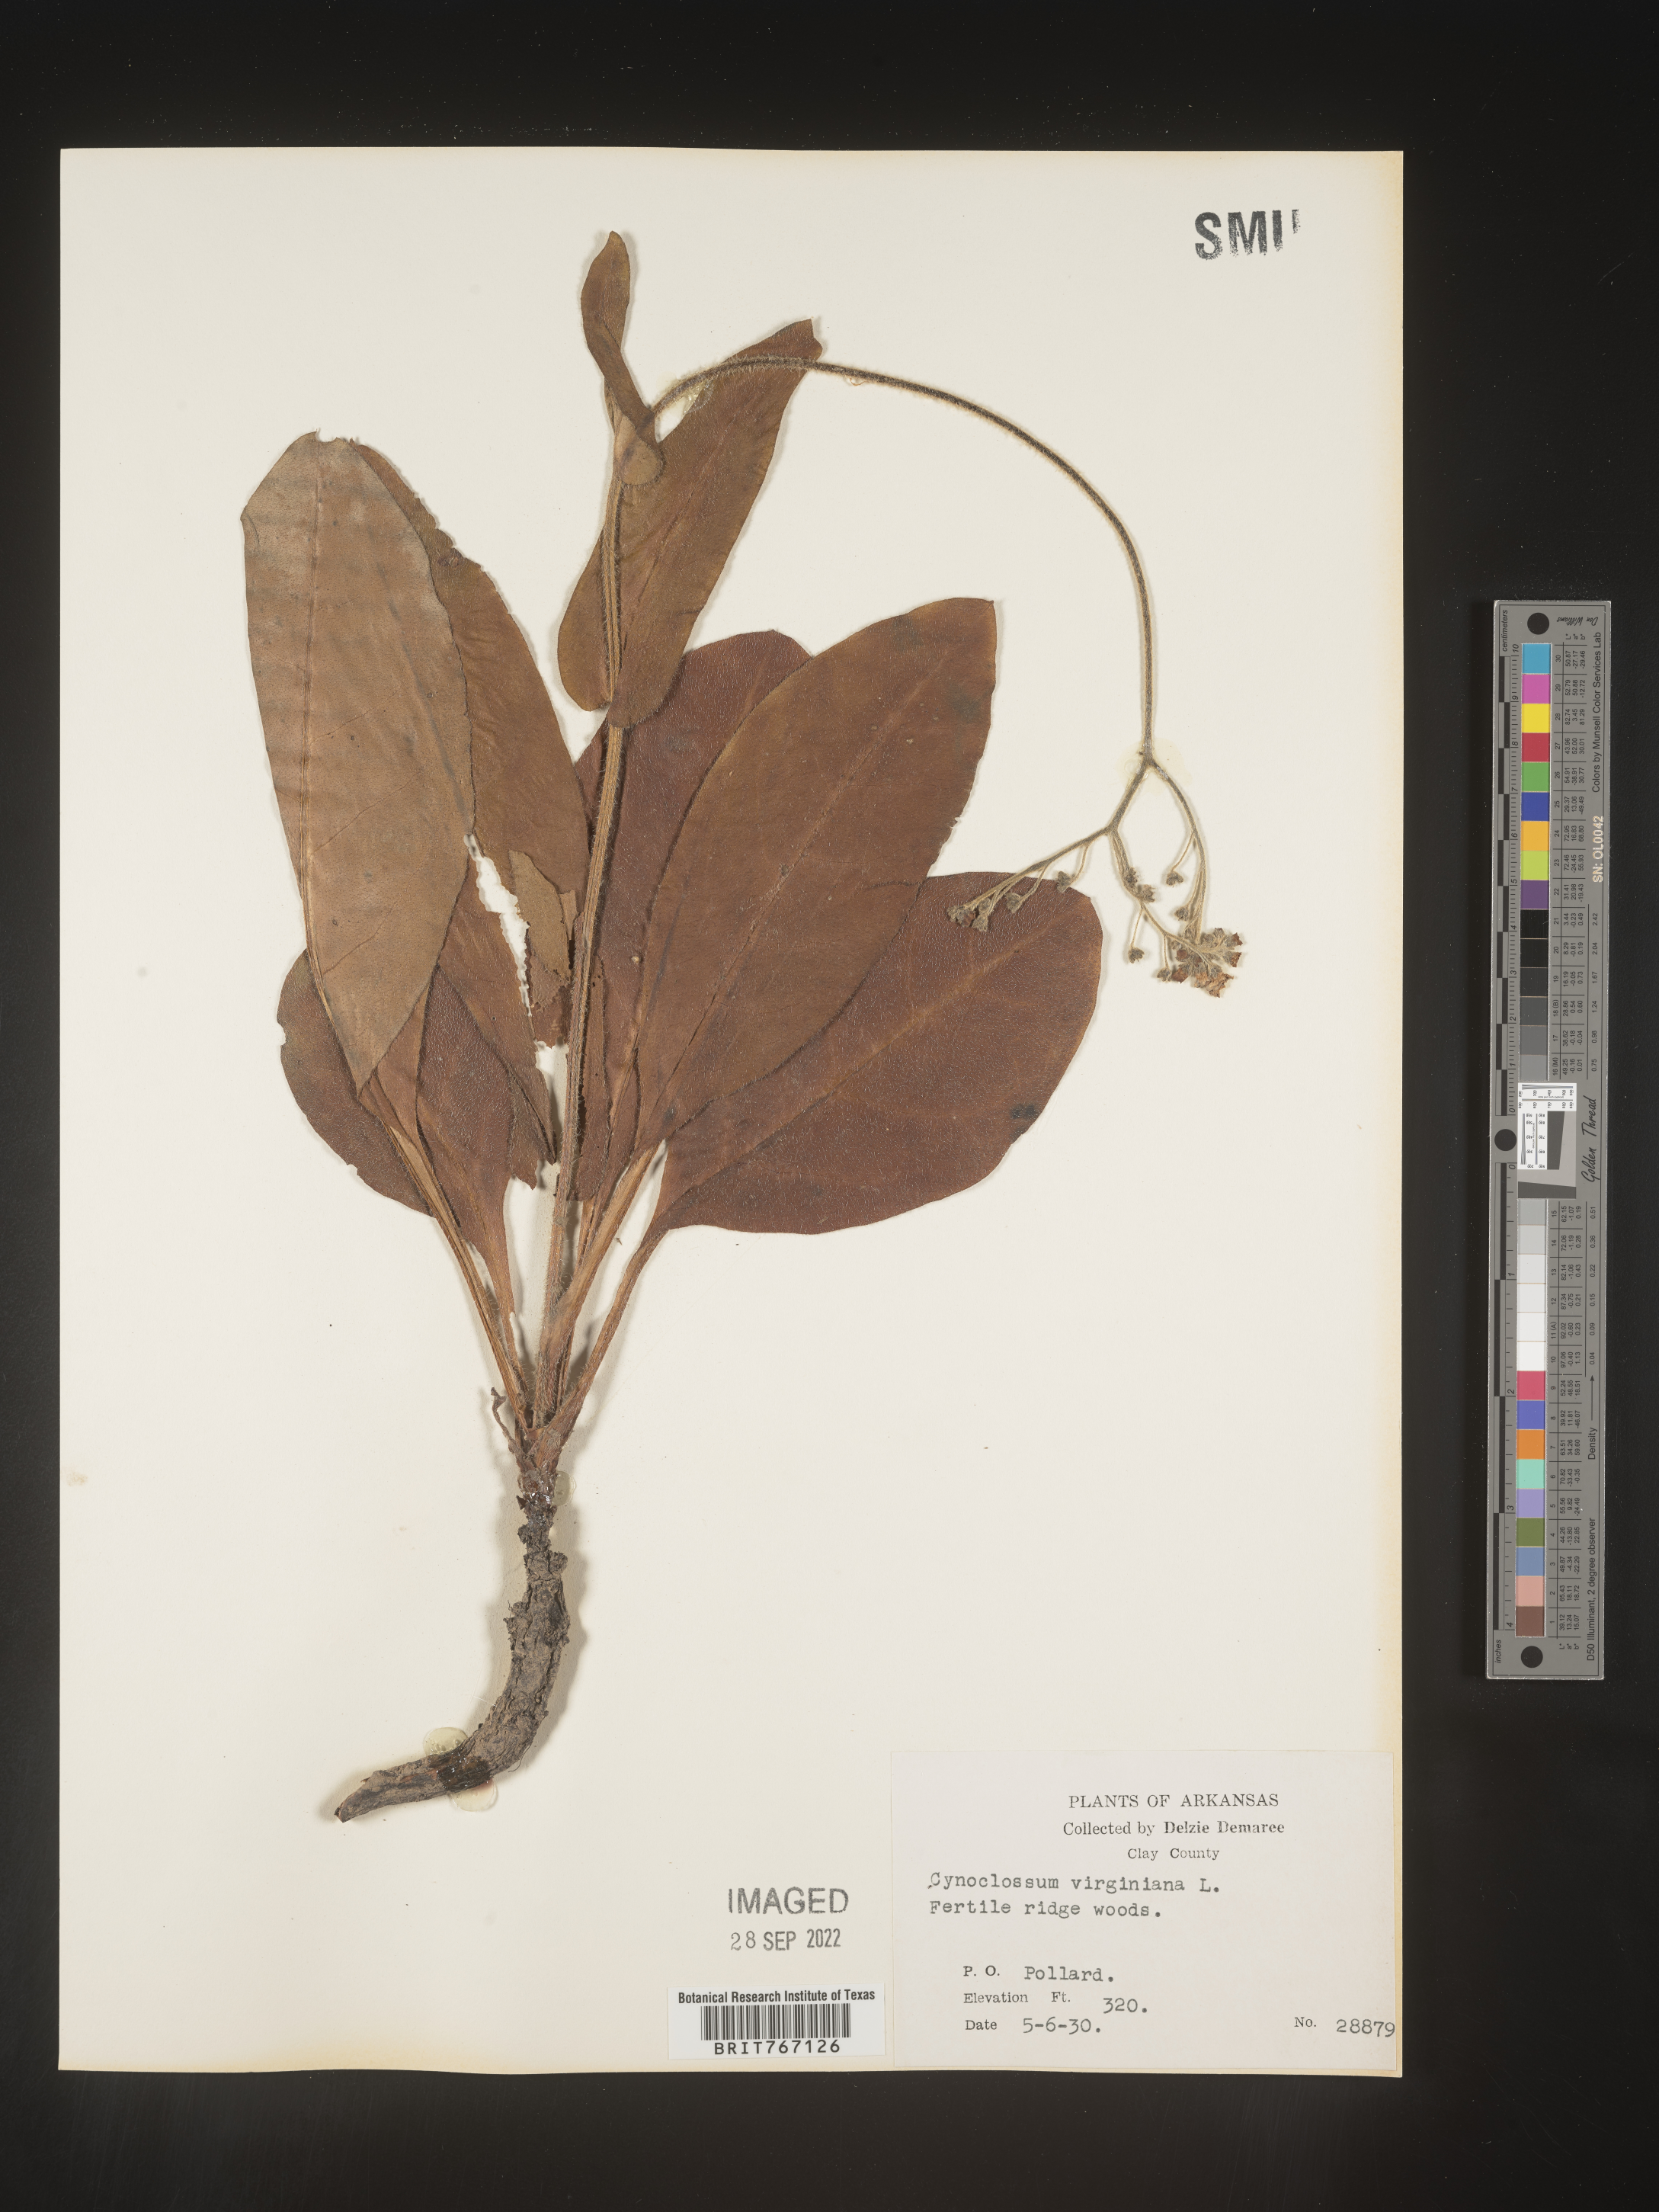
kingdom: Plantae
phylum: Tracheophyta
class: Magnoliopsida
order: Boraginales
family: Boraginaceae
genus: Andersonglossum
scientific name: Andersonglossum virginianum
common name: Wild comfrey
